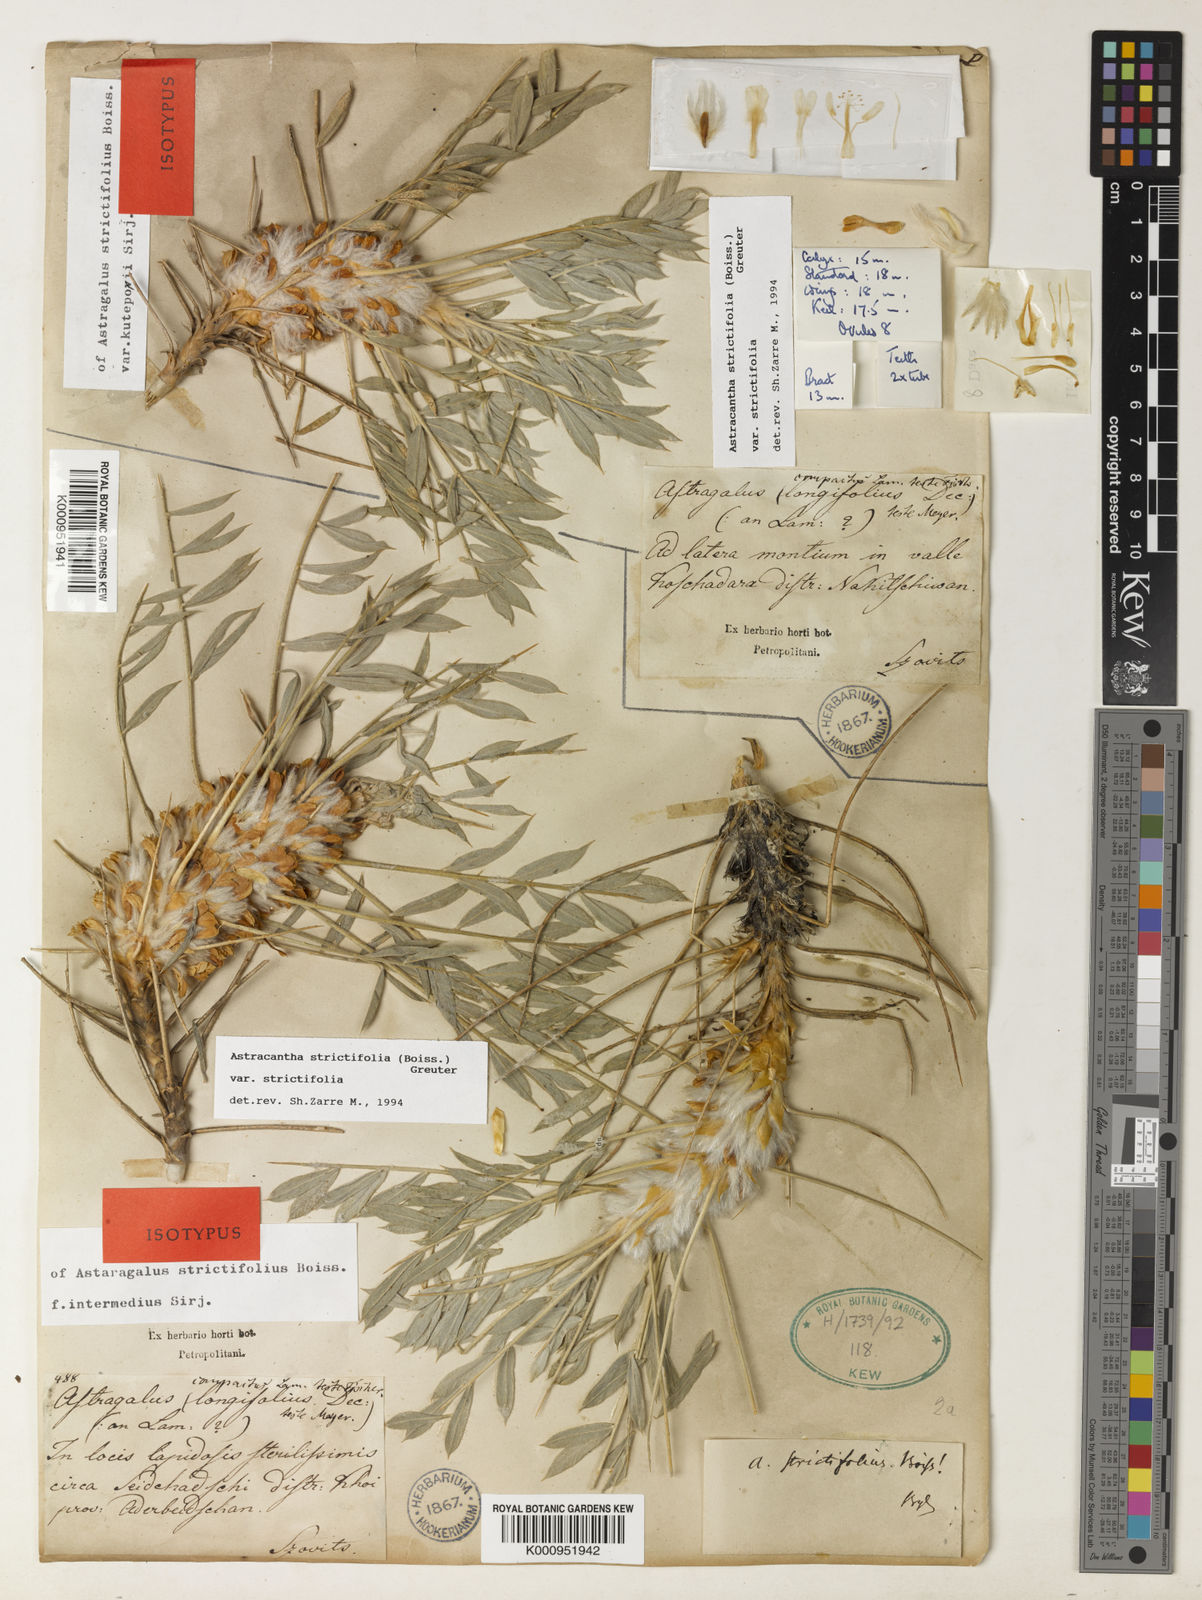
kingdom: Plantae
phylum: Tracheophyta
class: Magnoliopsida
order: Fabales
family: Fabaceae
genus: Astragalus
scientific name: Astragalus strictifolius
